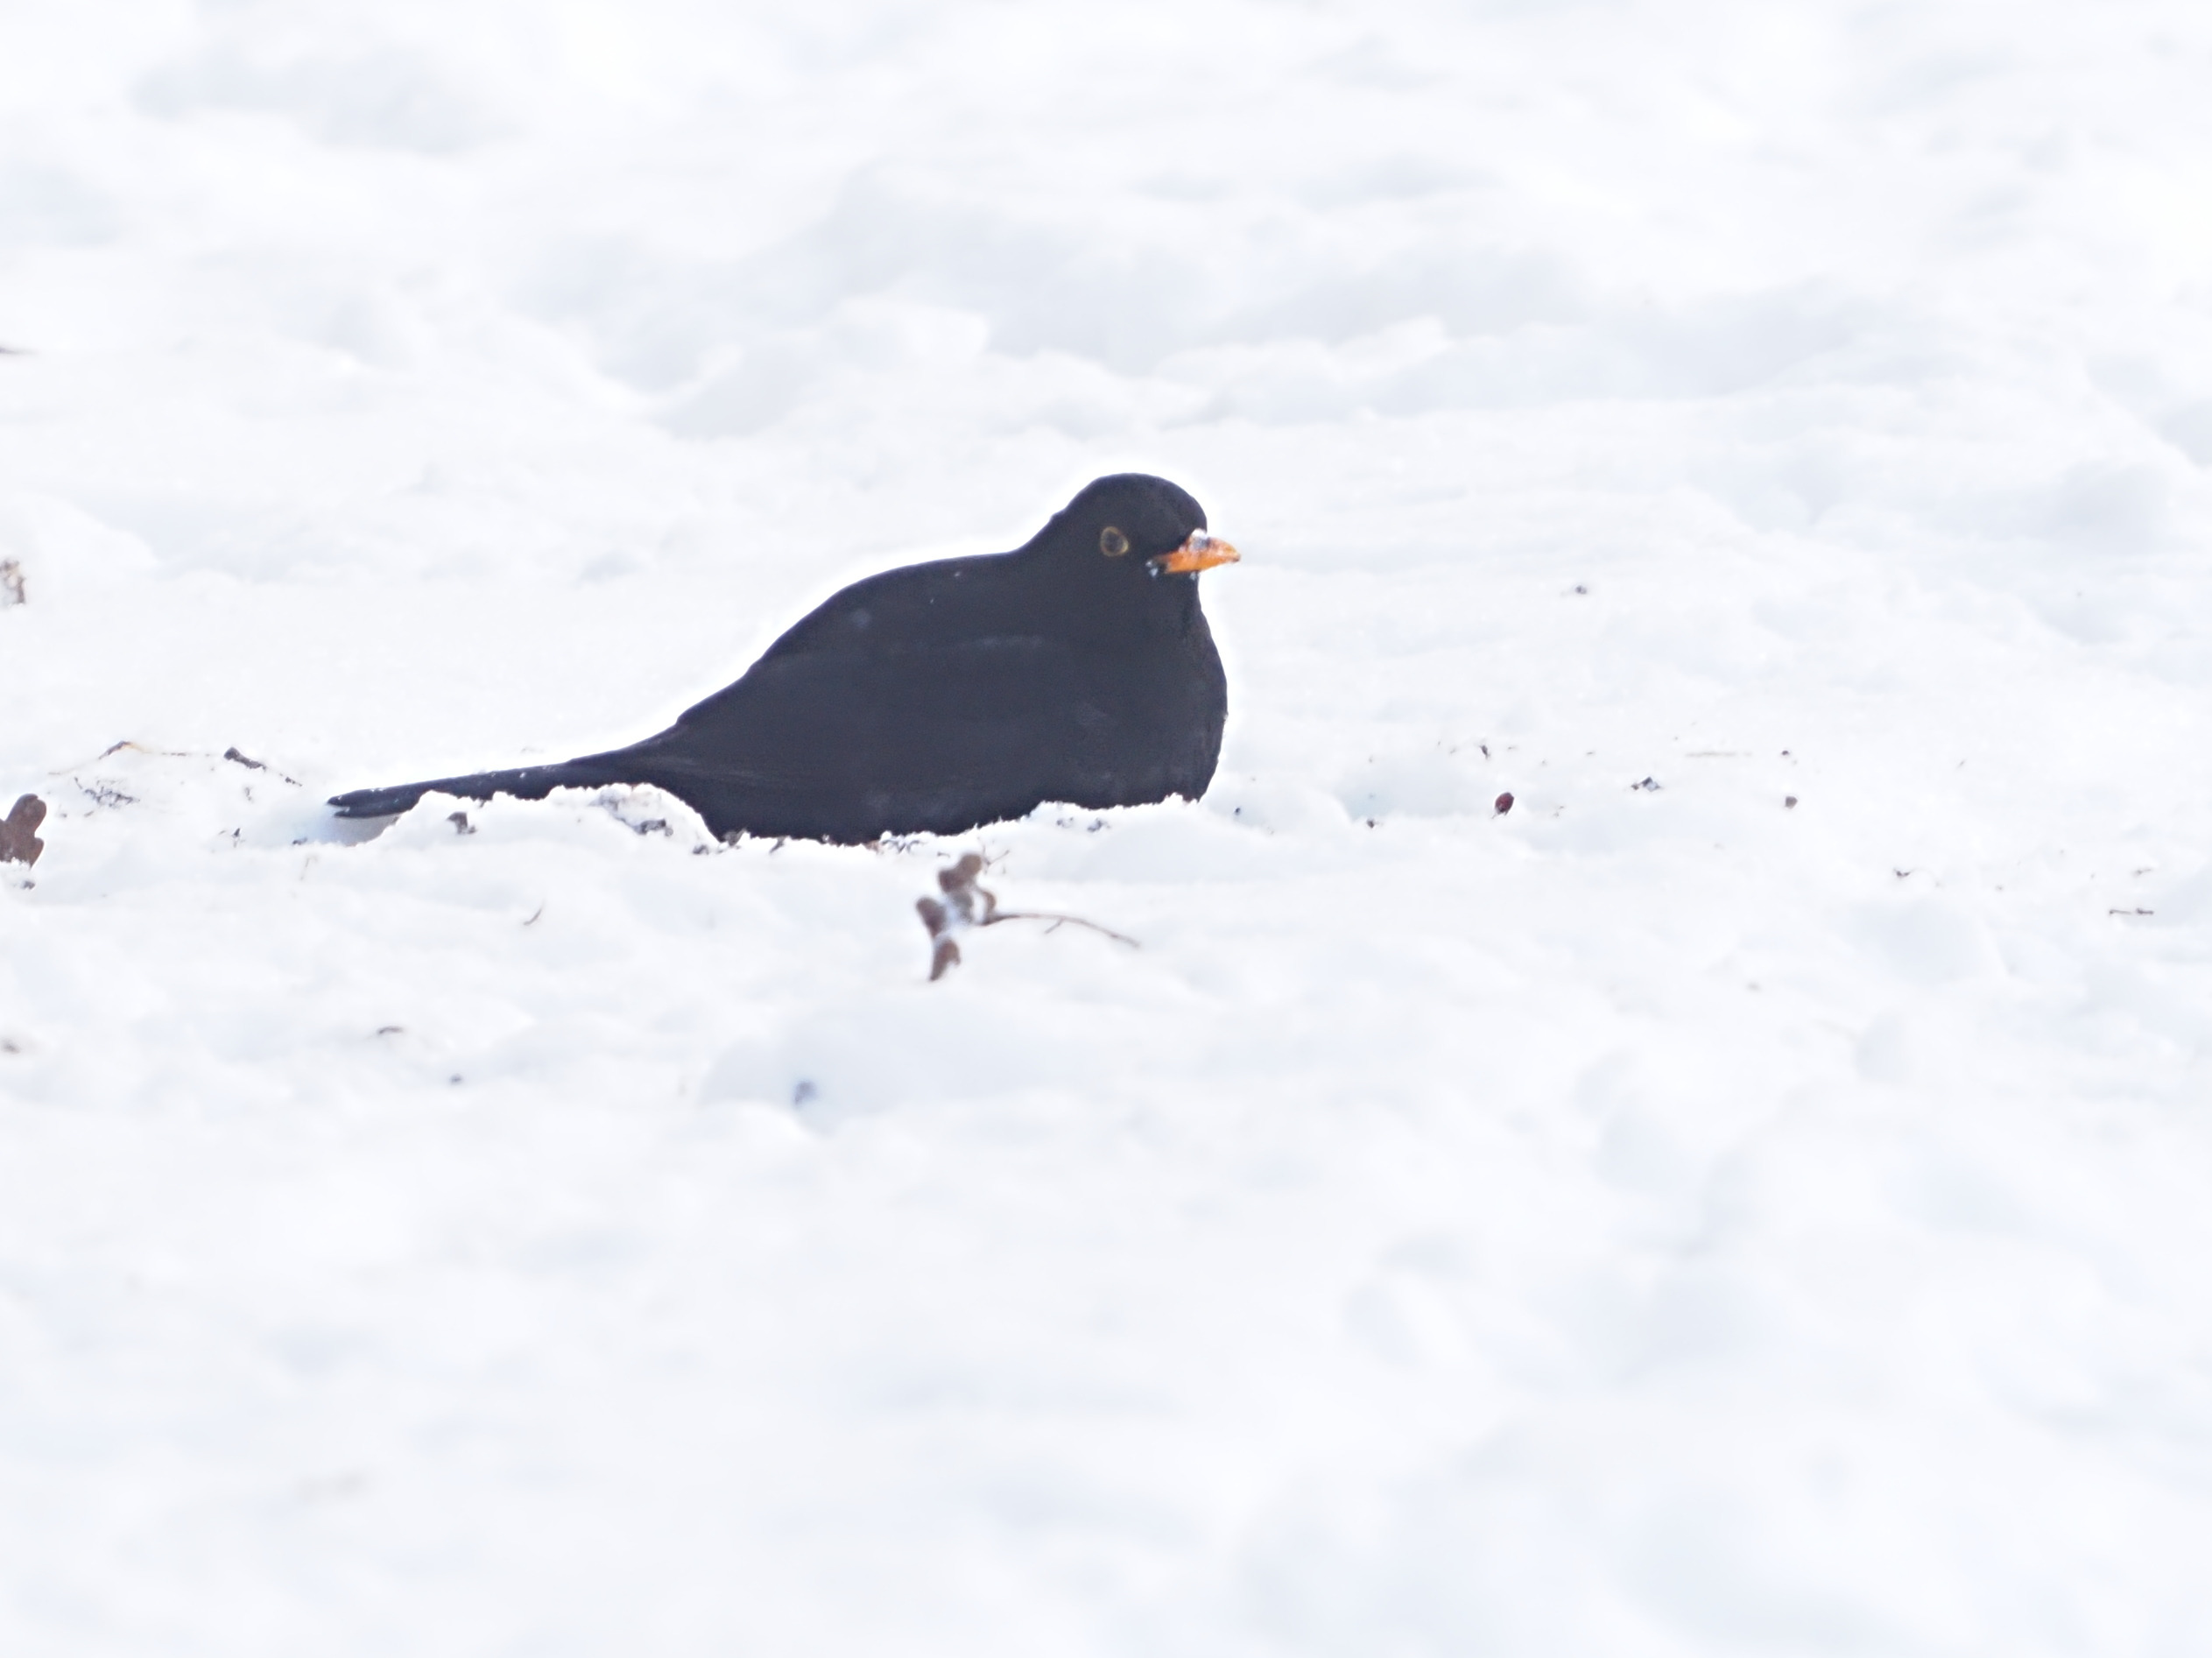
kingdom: Animalia
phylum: Chordata
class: Aves
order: Passeriformes
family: Turdidae
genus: Turdus
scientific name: Turdus merula
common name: Solsort
